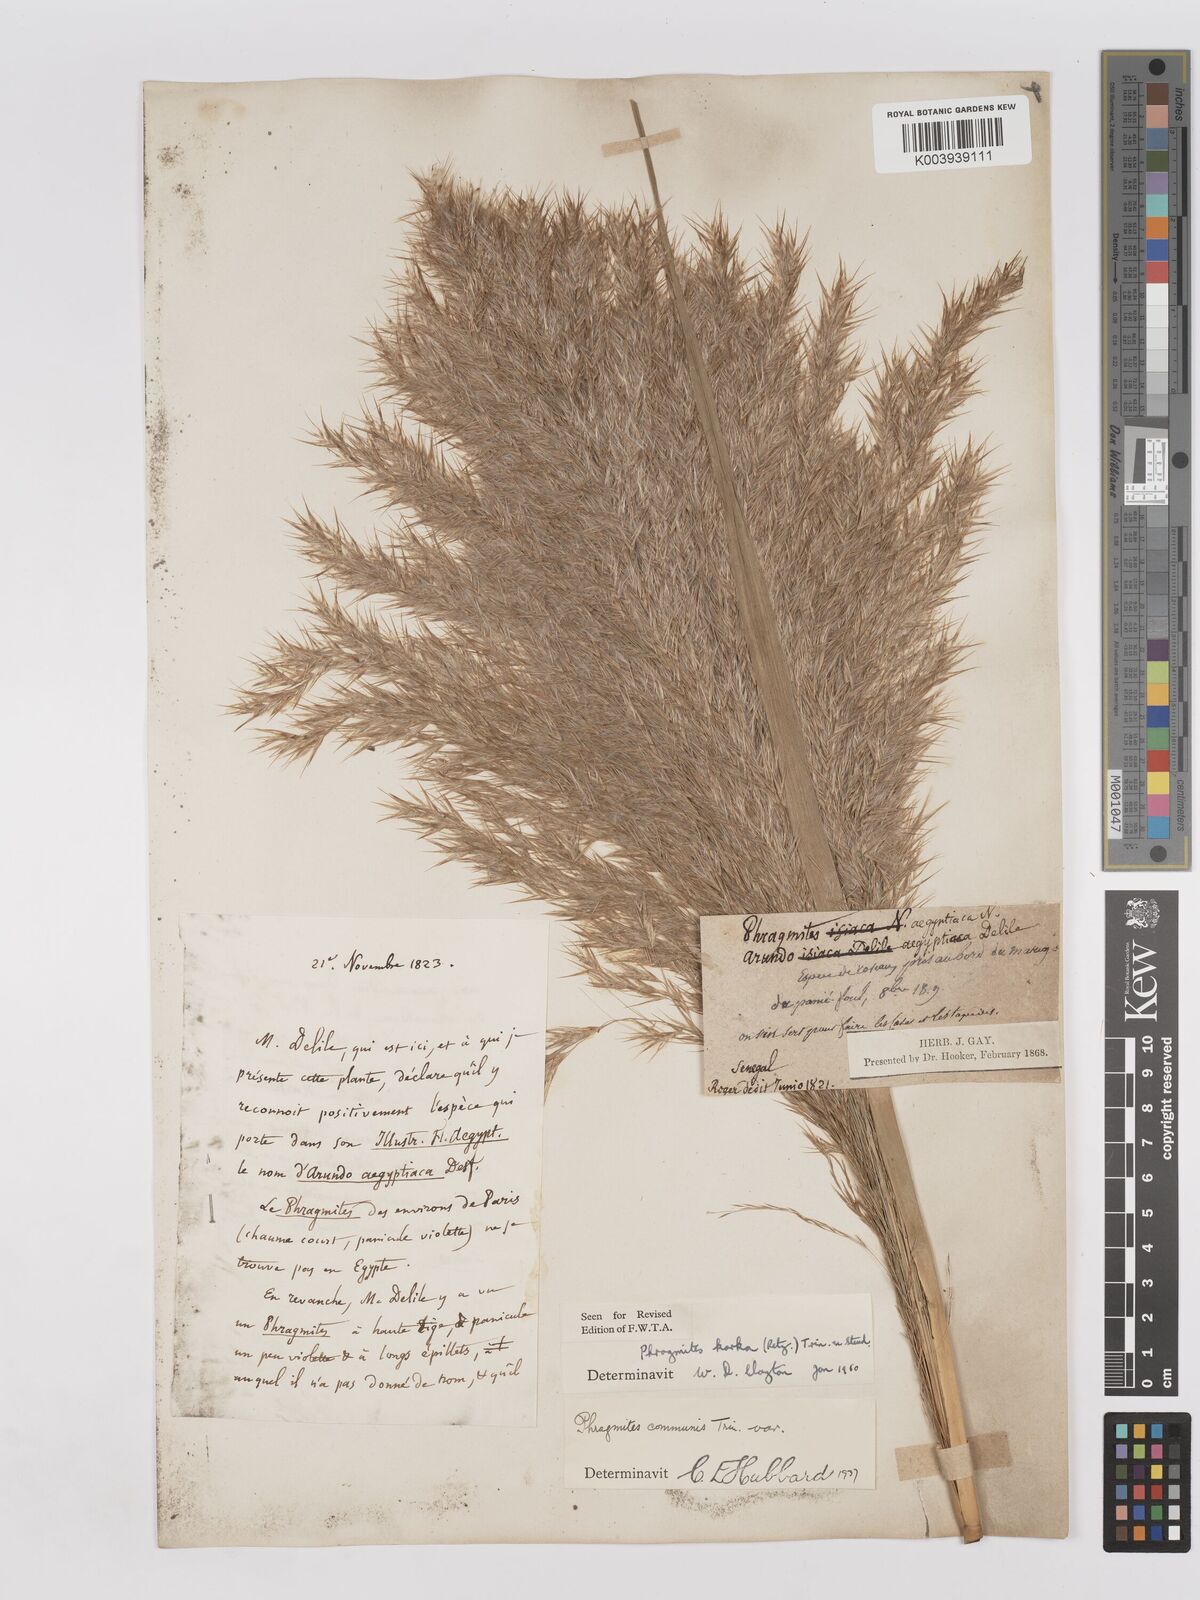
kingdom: Plantae
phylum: Tracheophyta
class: Liliopsida
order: Poales
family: Poaceae
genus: Phragmites
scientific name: Phragmites karka
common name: Tropical reed
